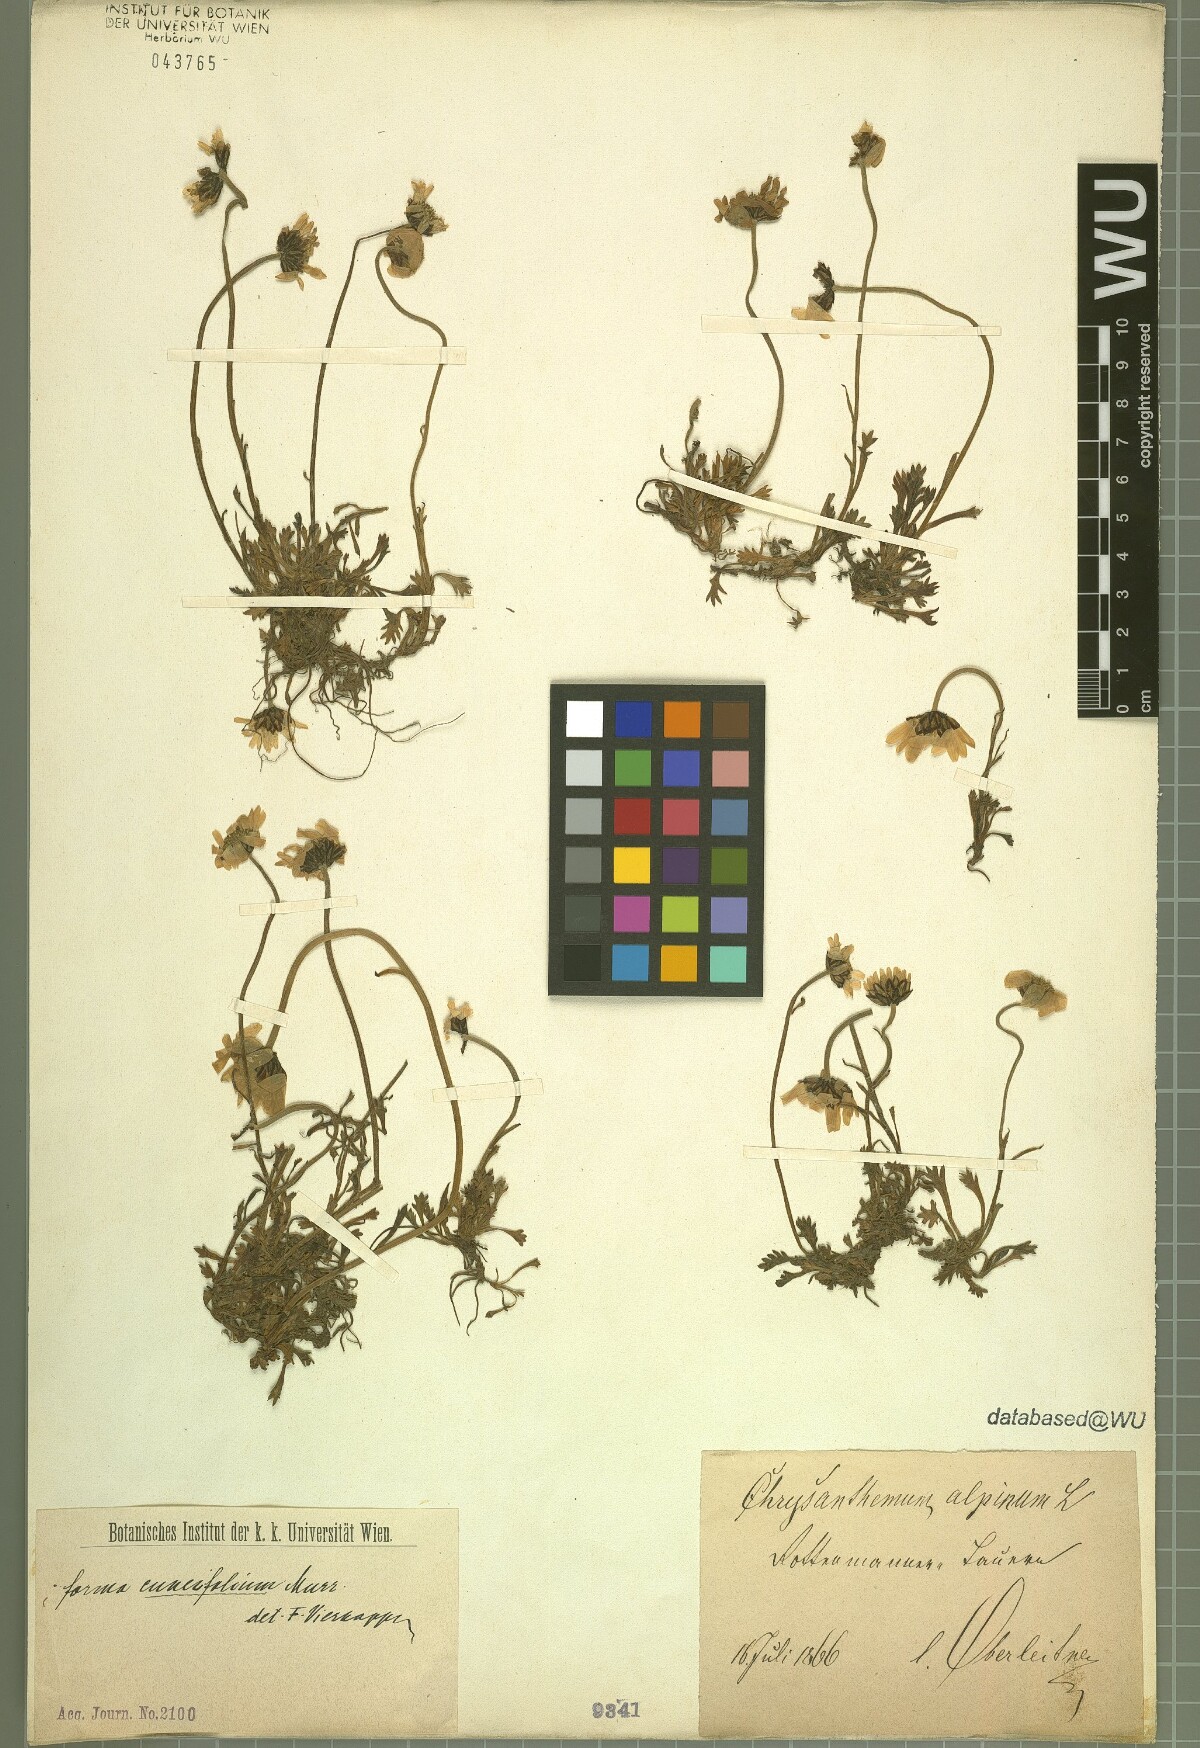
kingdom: Plantae
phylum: Tracheophyta
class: Magnoliopsida
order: Asterales
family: Asteraceae
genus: Leucanthemopsis
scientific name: Leucanthemopsis alpina
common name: Alpine moon daisy
